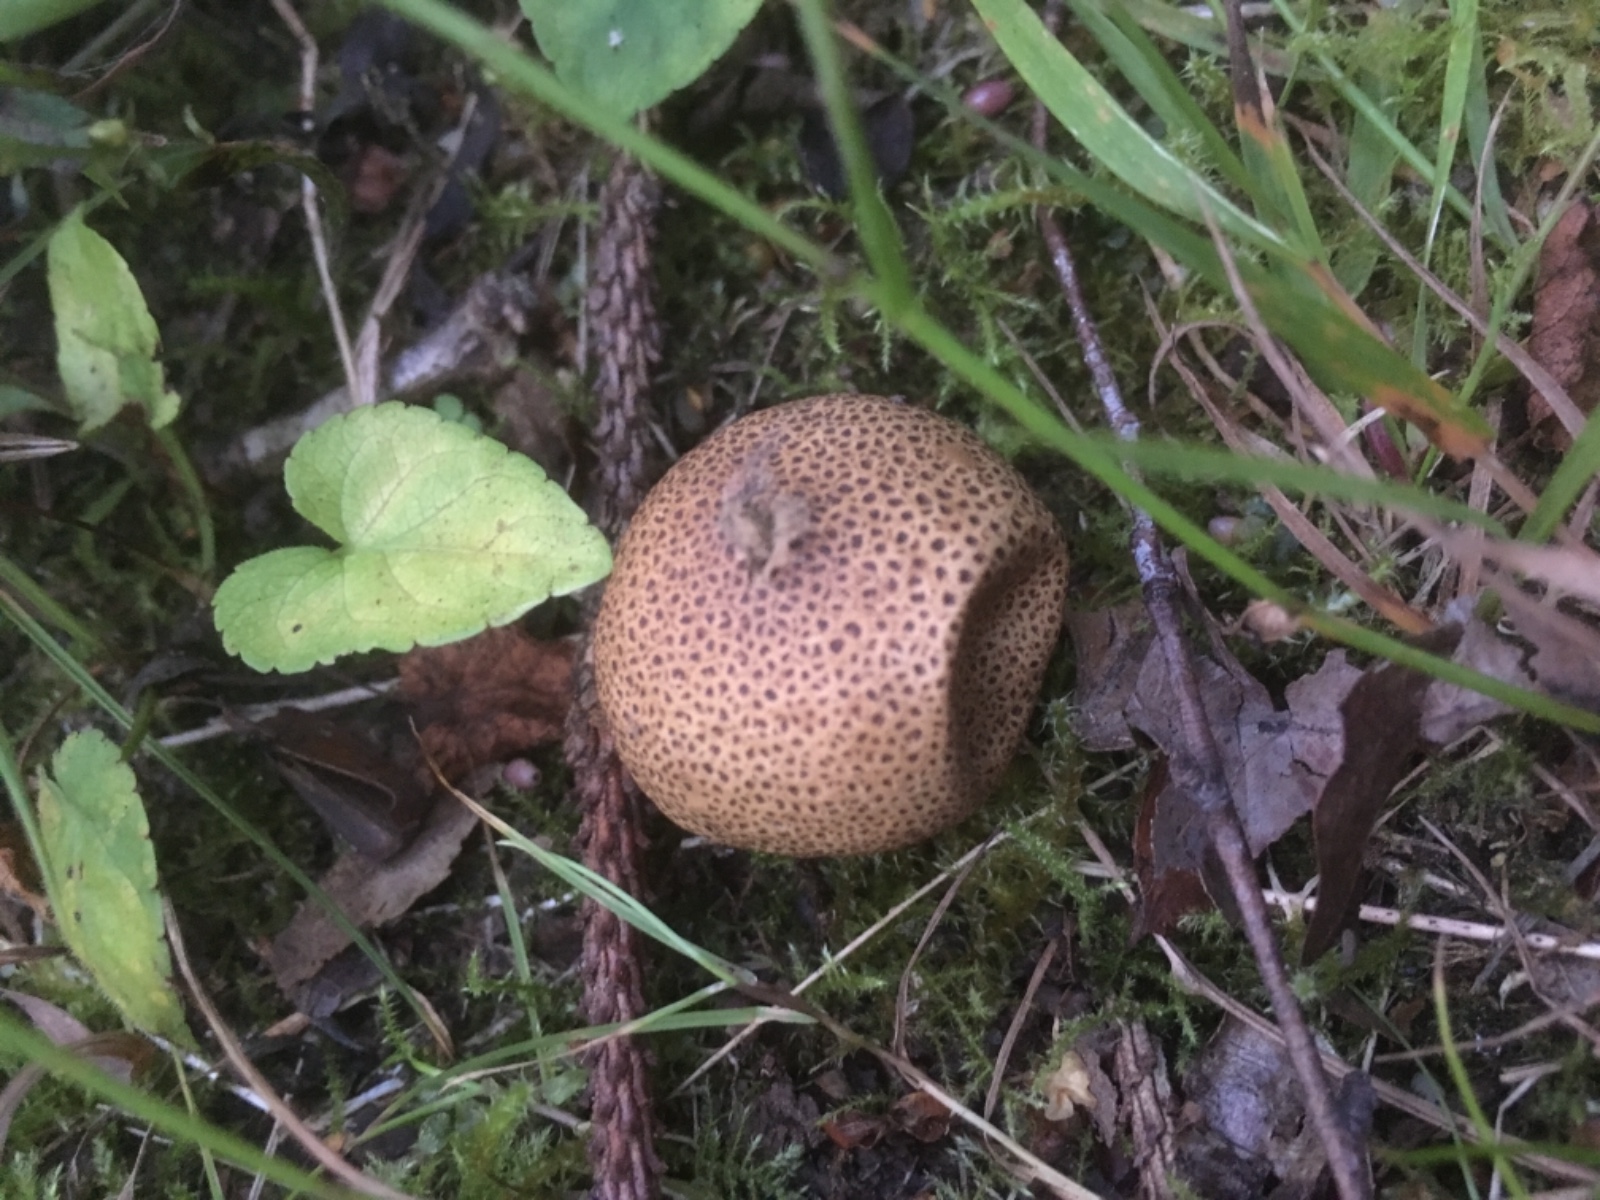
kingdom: Fungi
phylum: Basidiomycota
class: Agaricomycetes
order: Agaricales
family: Agaricaceae
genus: Lycoperdon
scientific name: Lycoperdon
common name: støvbold
